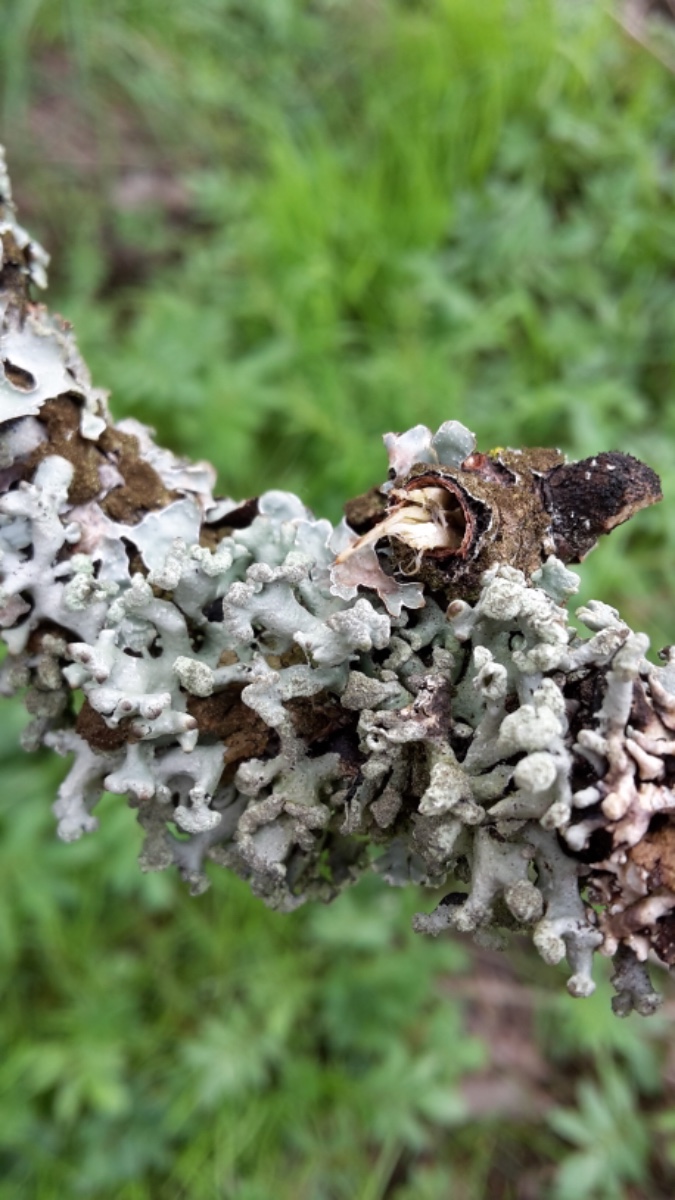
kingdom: Fungi
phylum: Ascomycota
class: Lecanoromycetes
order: Lecanorales
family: Parmeliaceae
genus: Hypogymnia
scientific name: Hypogymnia tubulosa
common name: finger-kvistlav
